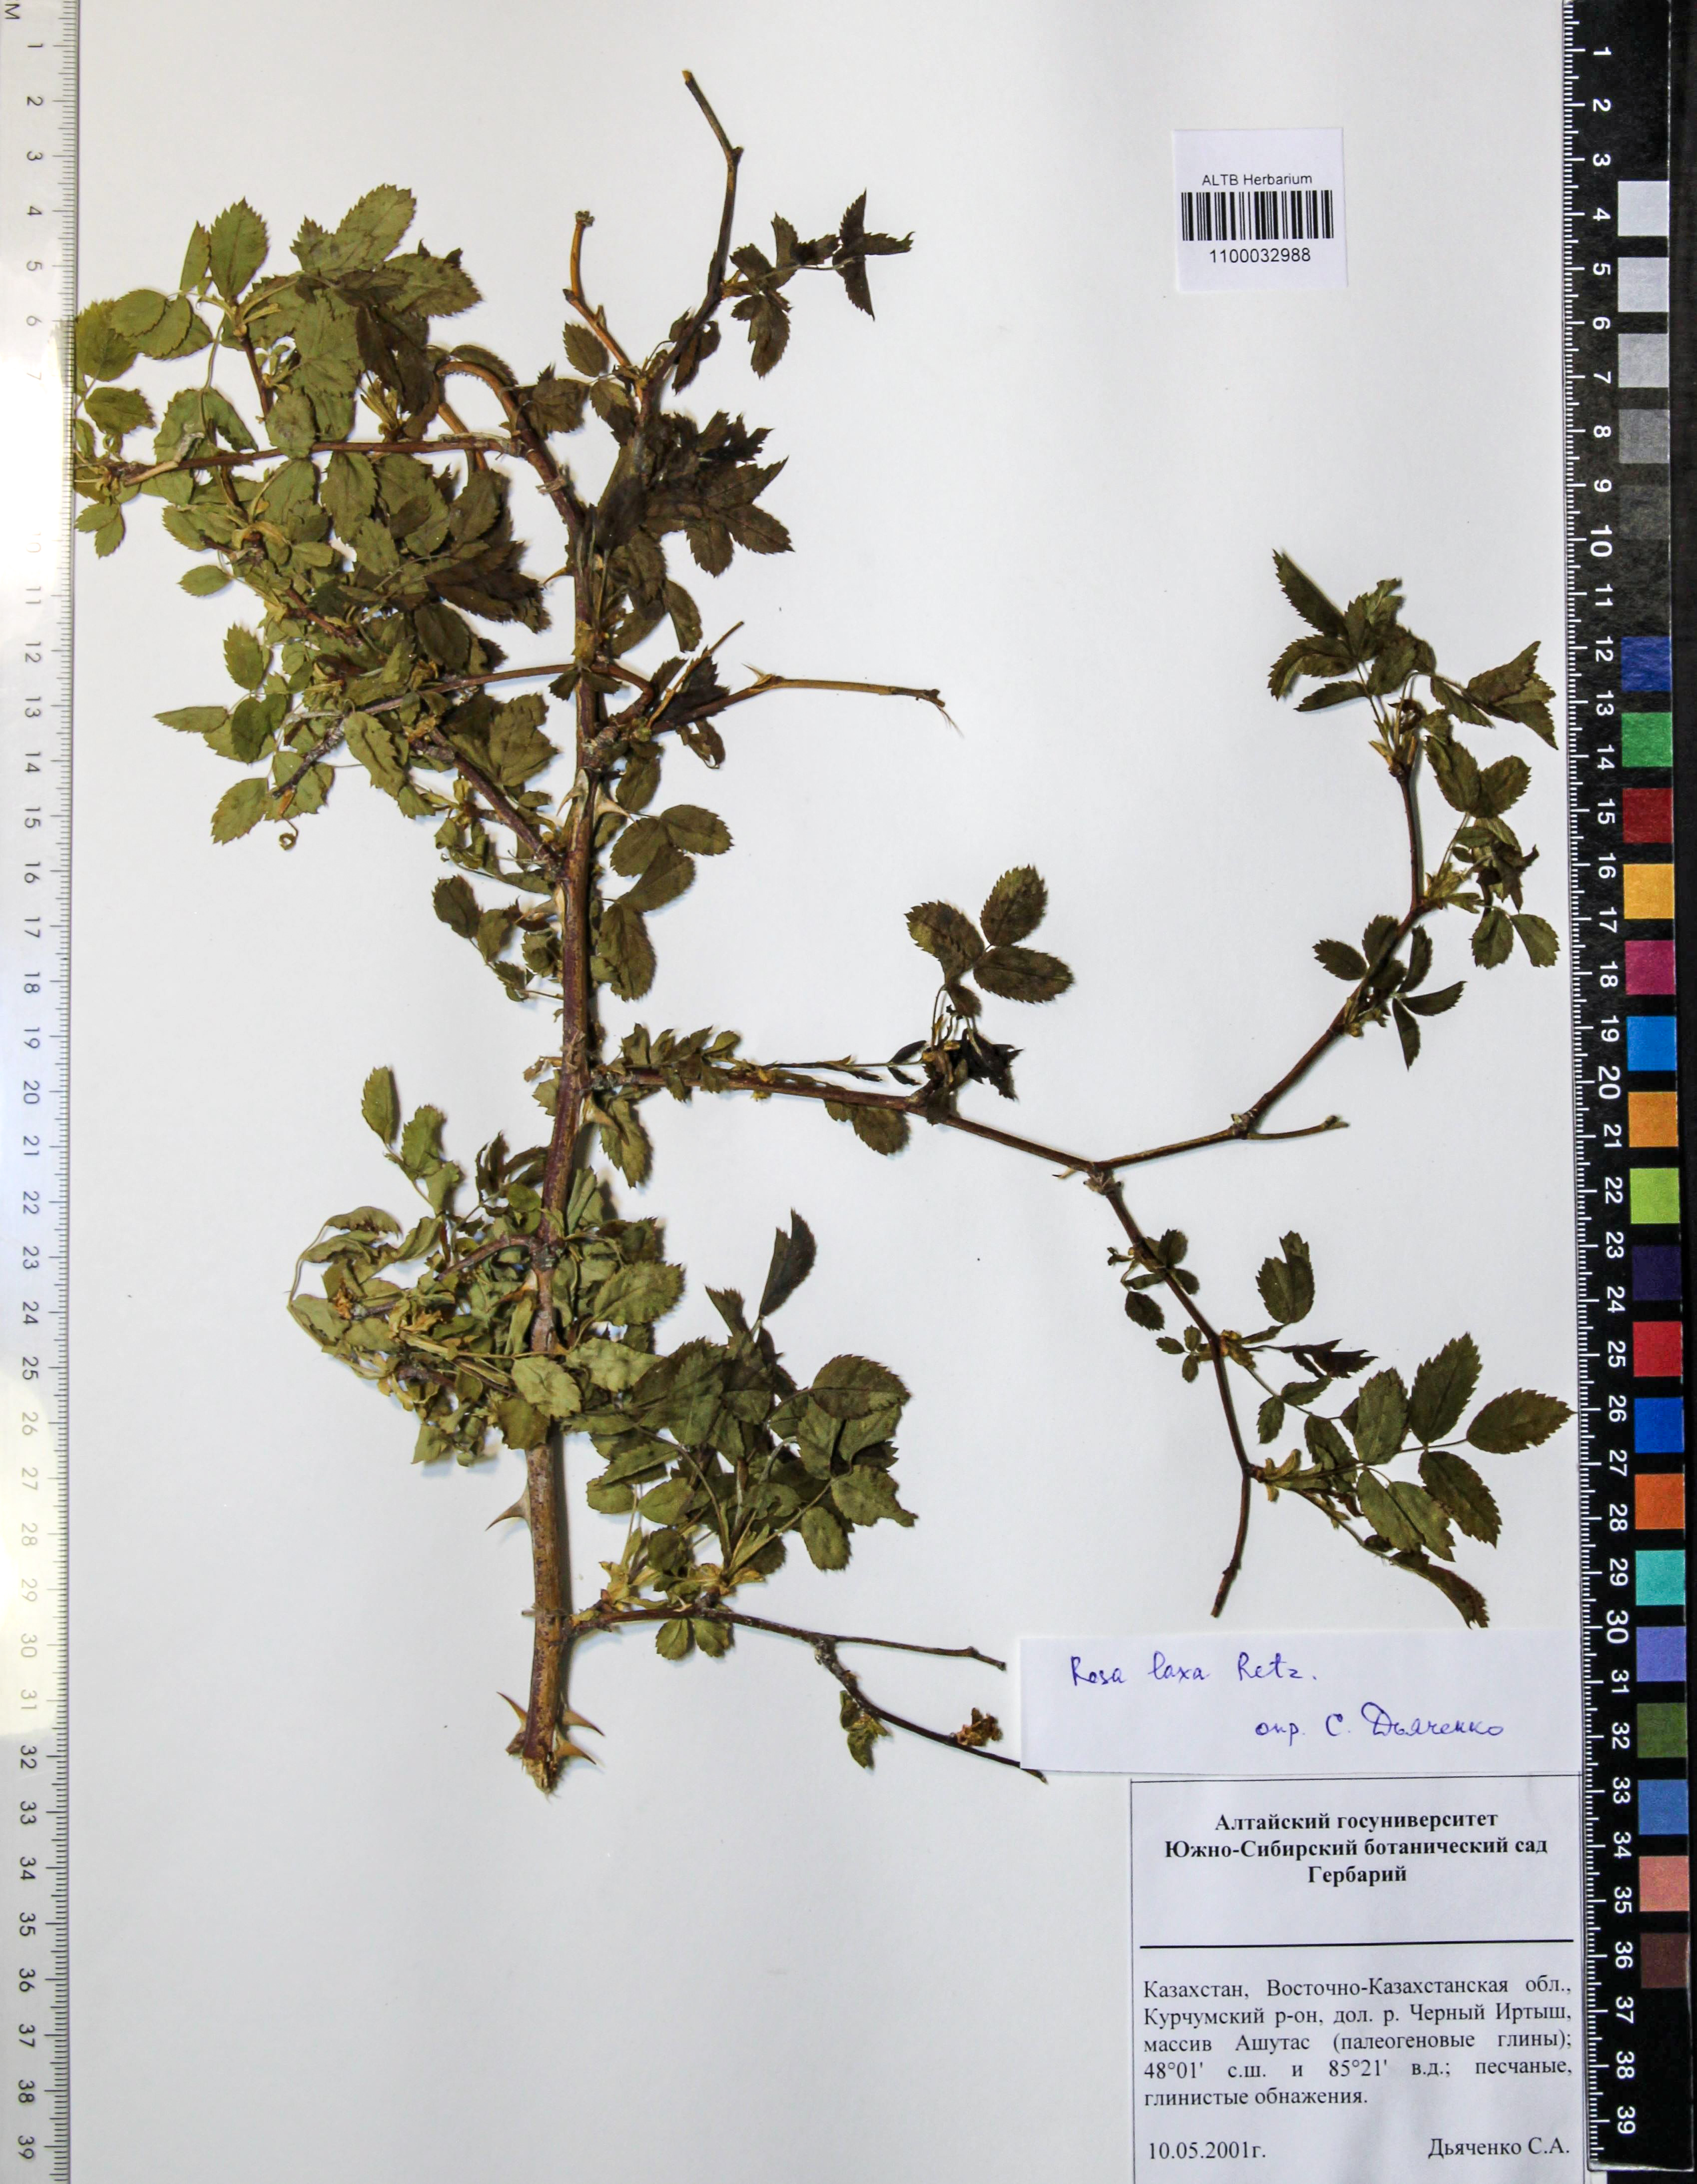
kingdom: Plantae
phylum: Tracheophyta
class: Magnoliopsida
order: Rosales
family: Rosaceae
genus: Rosa
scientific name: Rosa laxa
